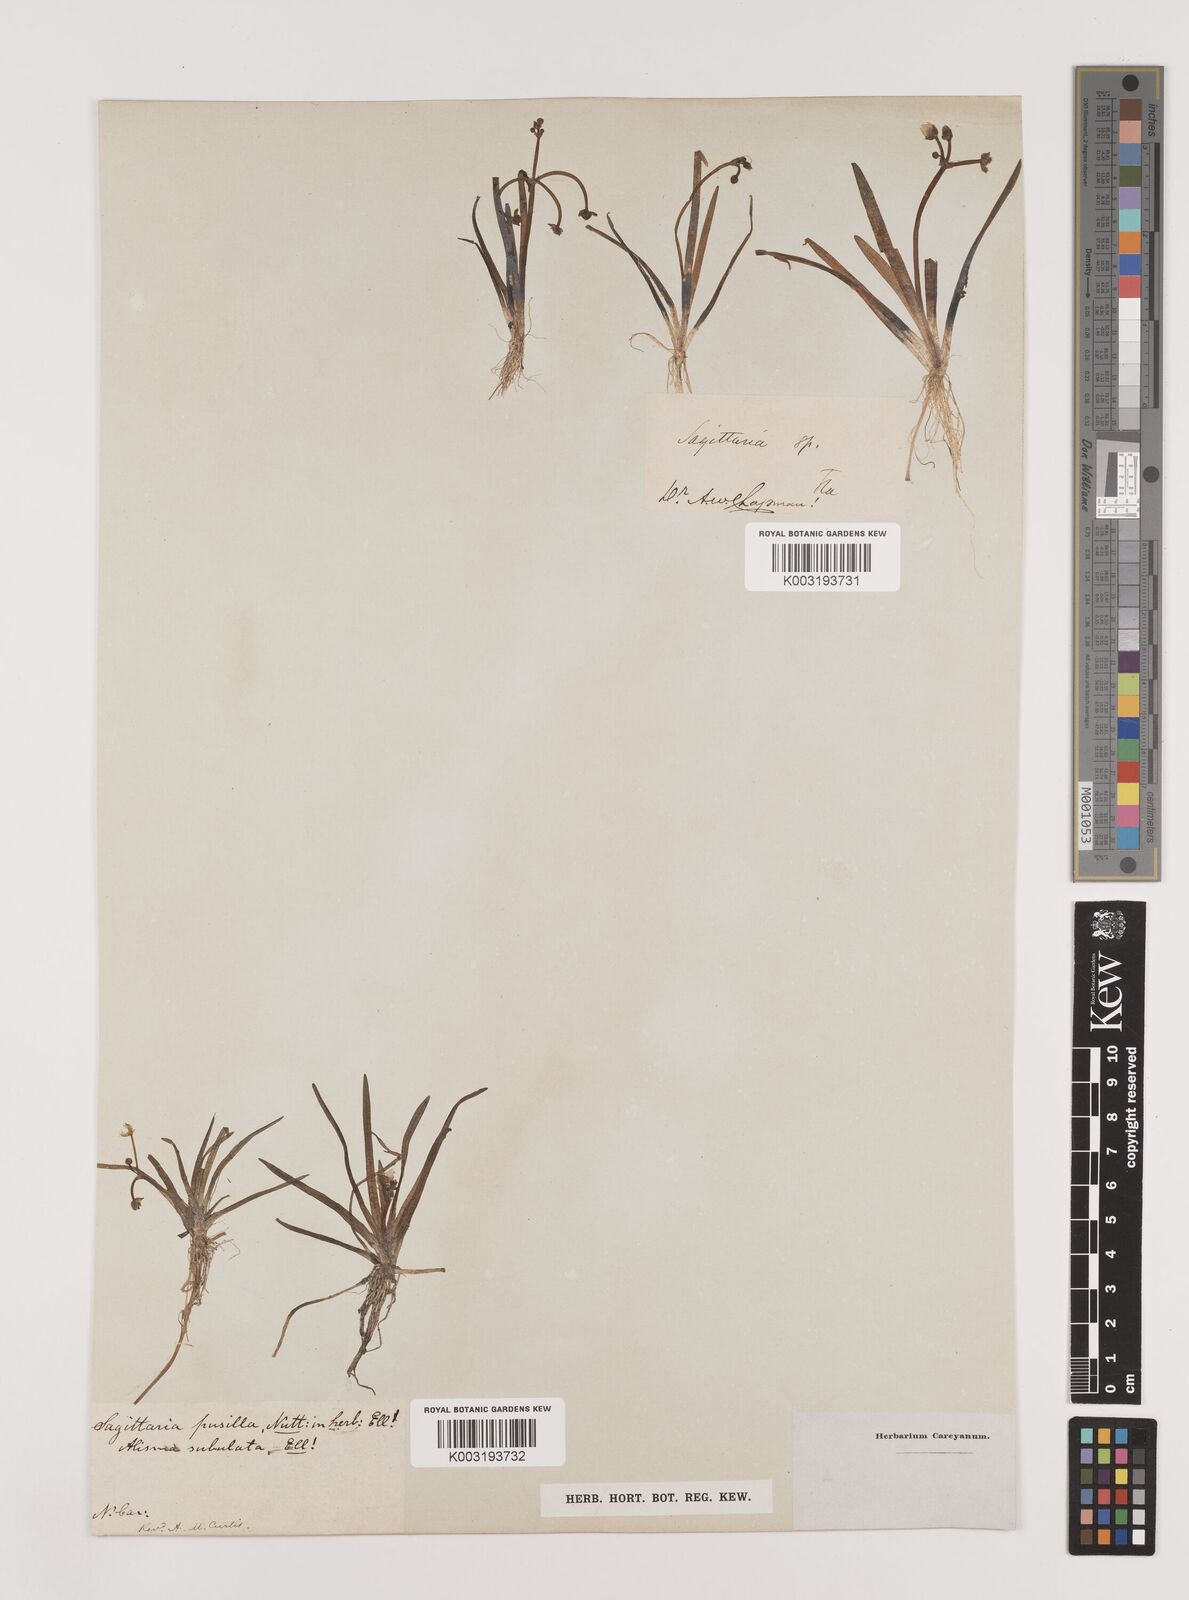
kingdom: Plantae
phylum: Tracheophyta
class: Liliopsida
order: Alismatales
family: Alismataceae
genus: Sagittaria
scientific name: Sagittaria subulata
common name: Narrow-leaved arrowhead
